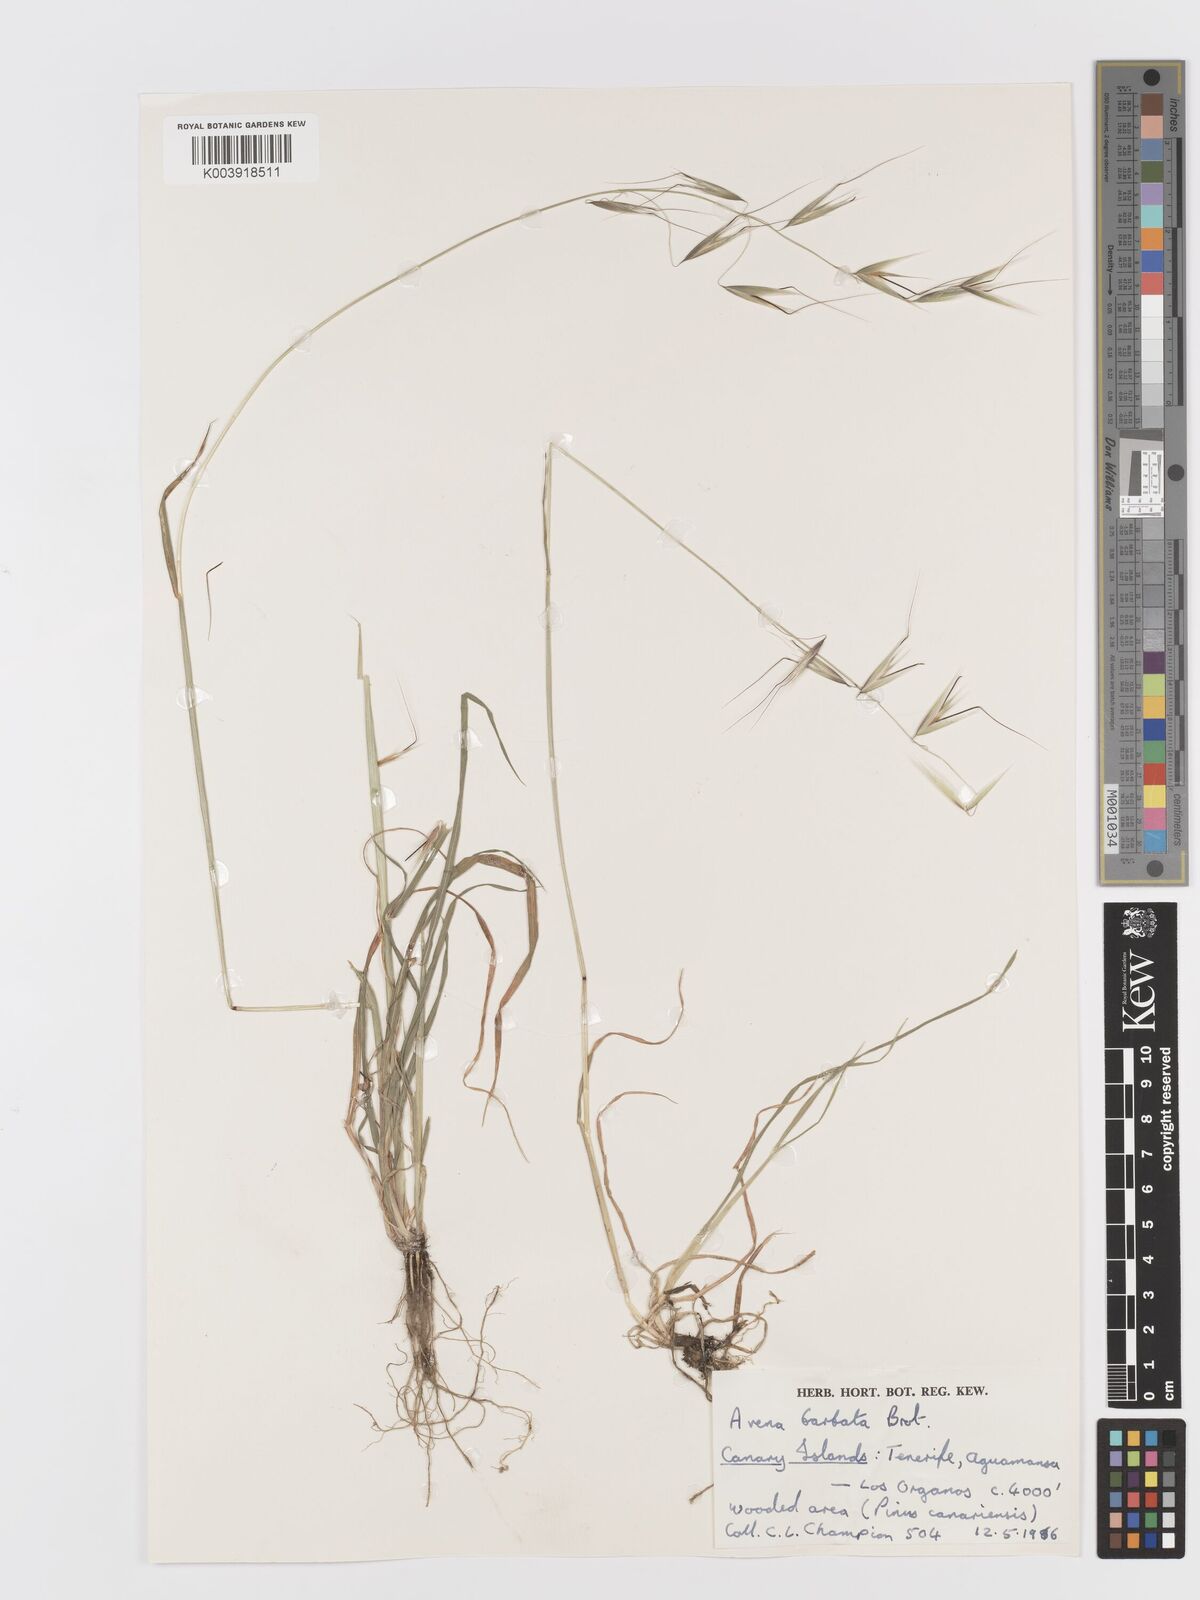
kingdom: Plantae
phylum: Tracheophyta
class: Liliopsida
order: Poales
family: Poaceae
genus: Avena
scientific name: Avena
